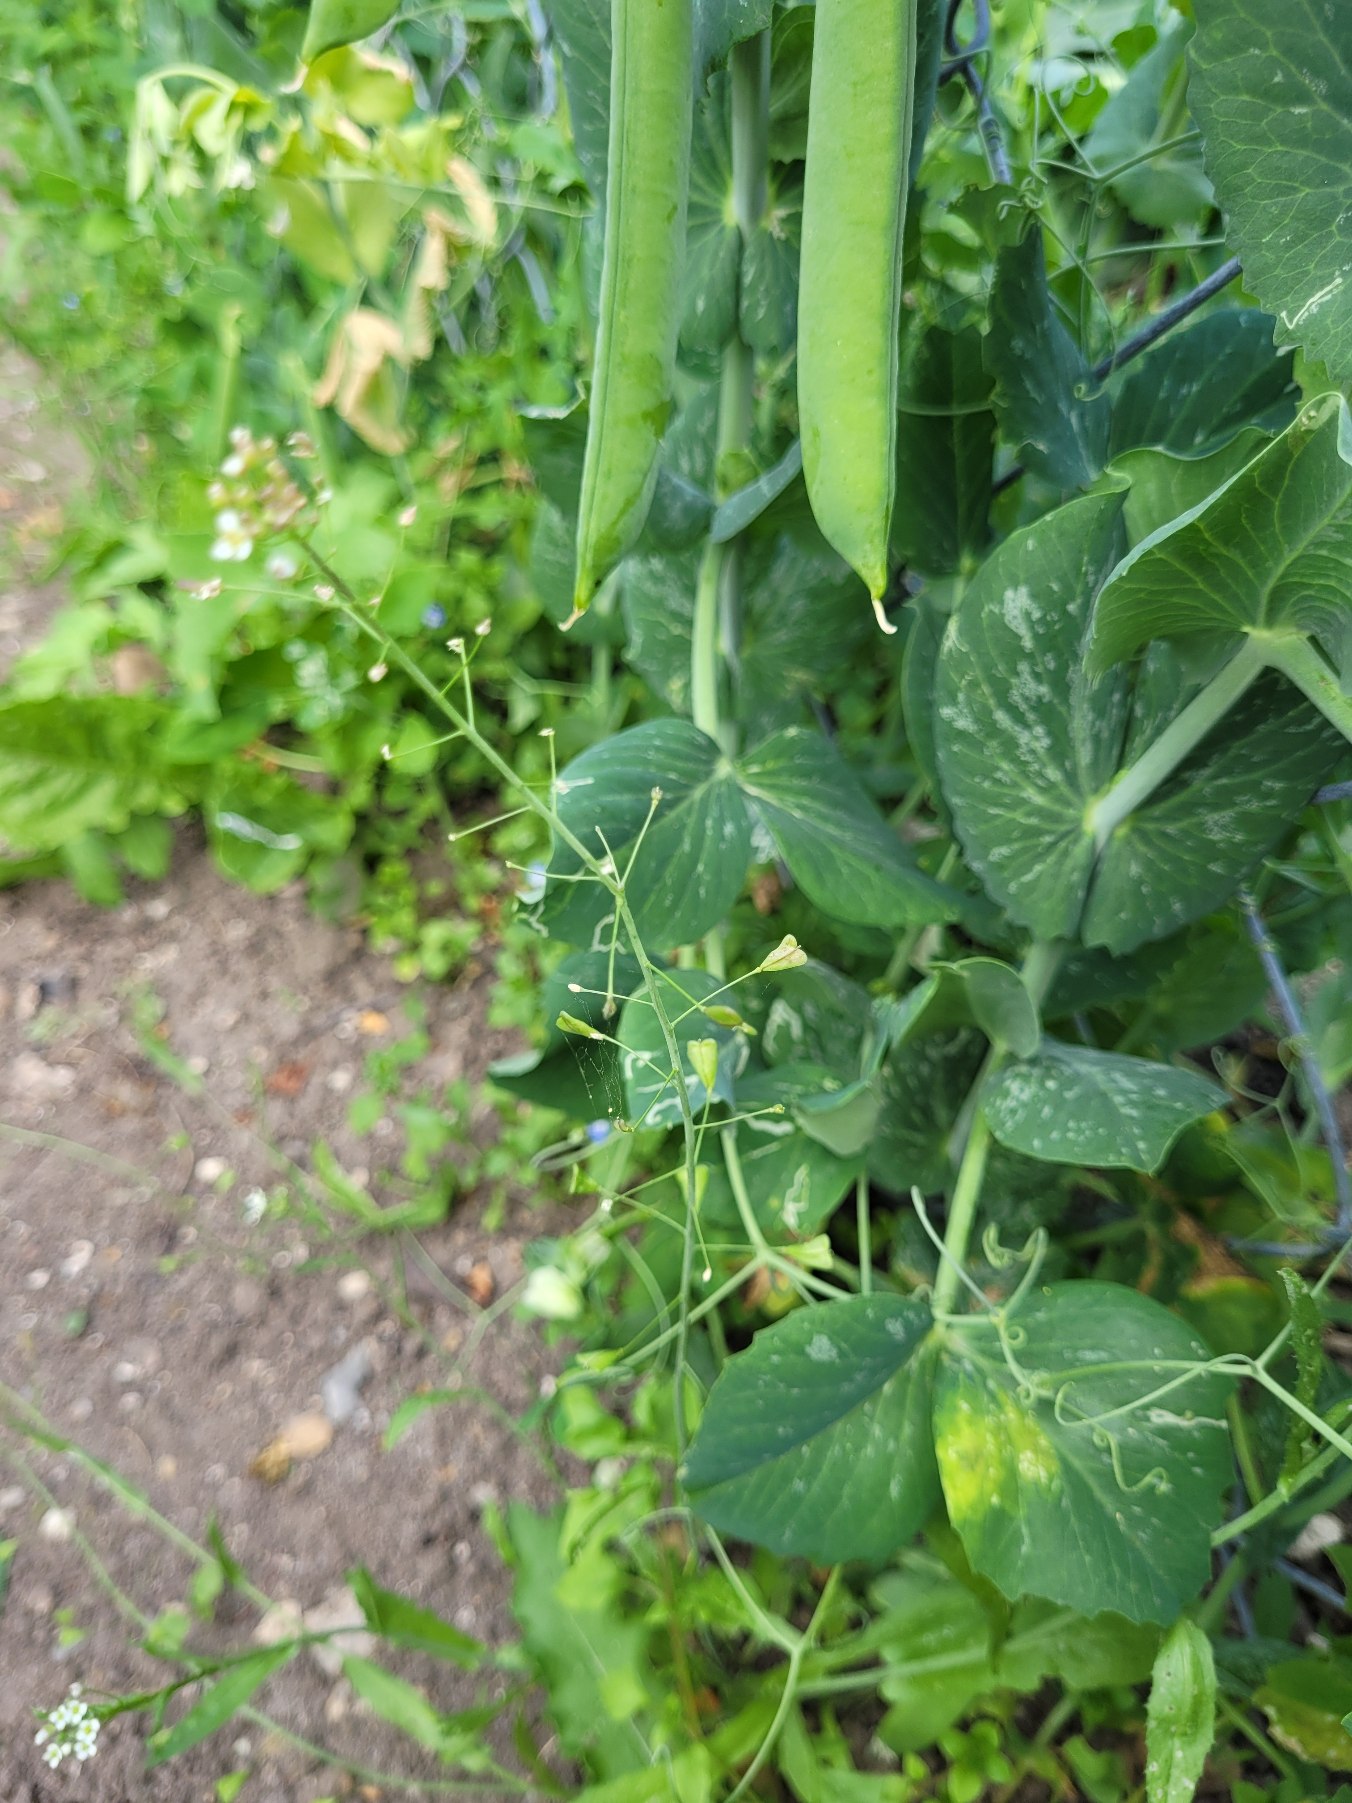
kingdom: Plantae
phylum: Tracheophyta
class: Magnoliopsida
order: Brassicales
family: Brassicaceae
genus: Capsella
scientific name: Capsella bursa-pastoris
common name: Hyrdetaske
